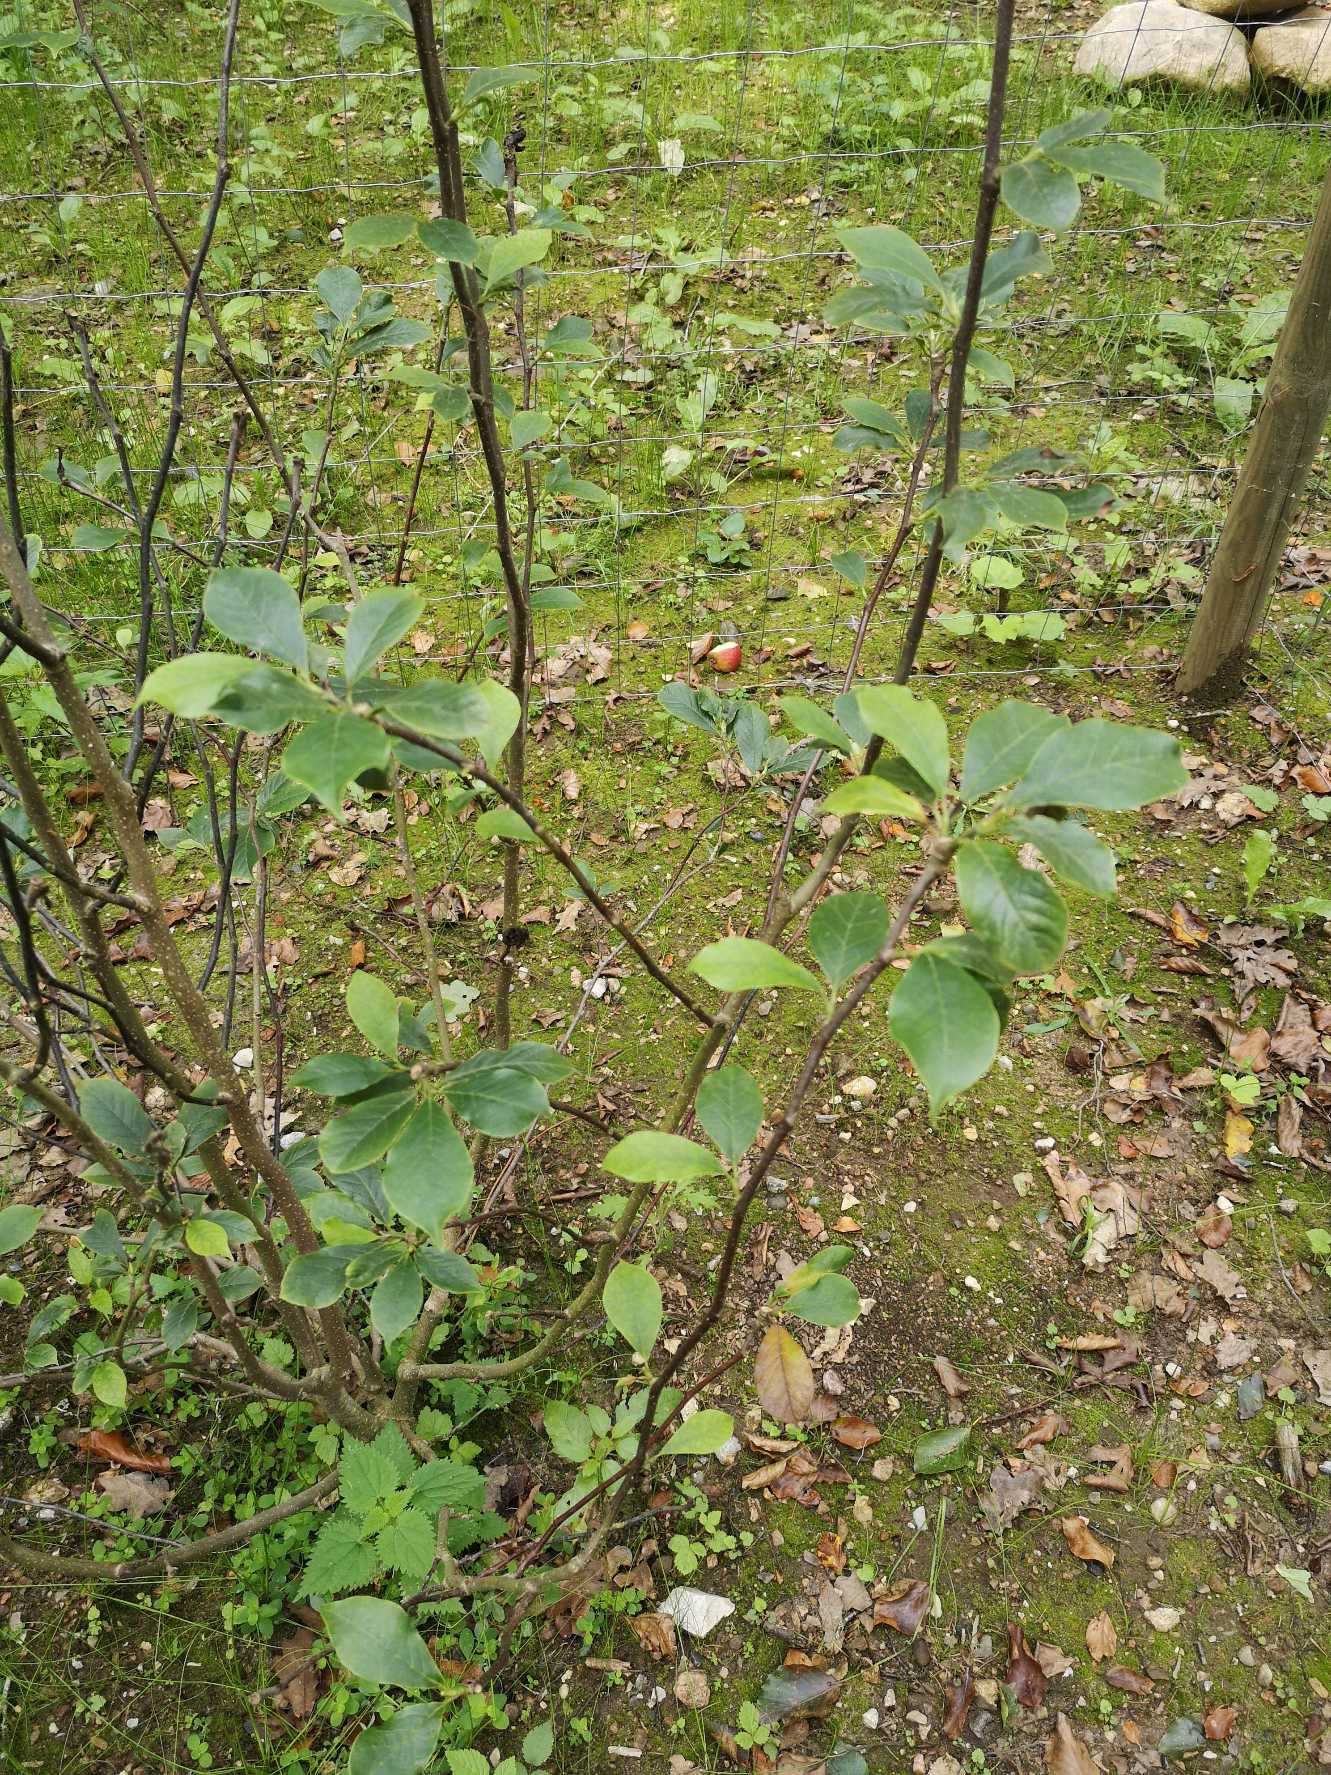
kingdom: Plantae
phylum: Tracheophyta
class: Magnoliopsida
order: Rosales
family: Rhamnaceae
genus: Frangula
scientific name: Frangula alnus
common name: Tørst
